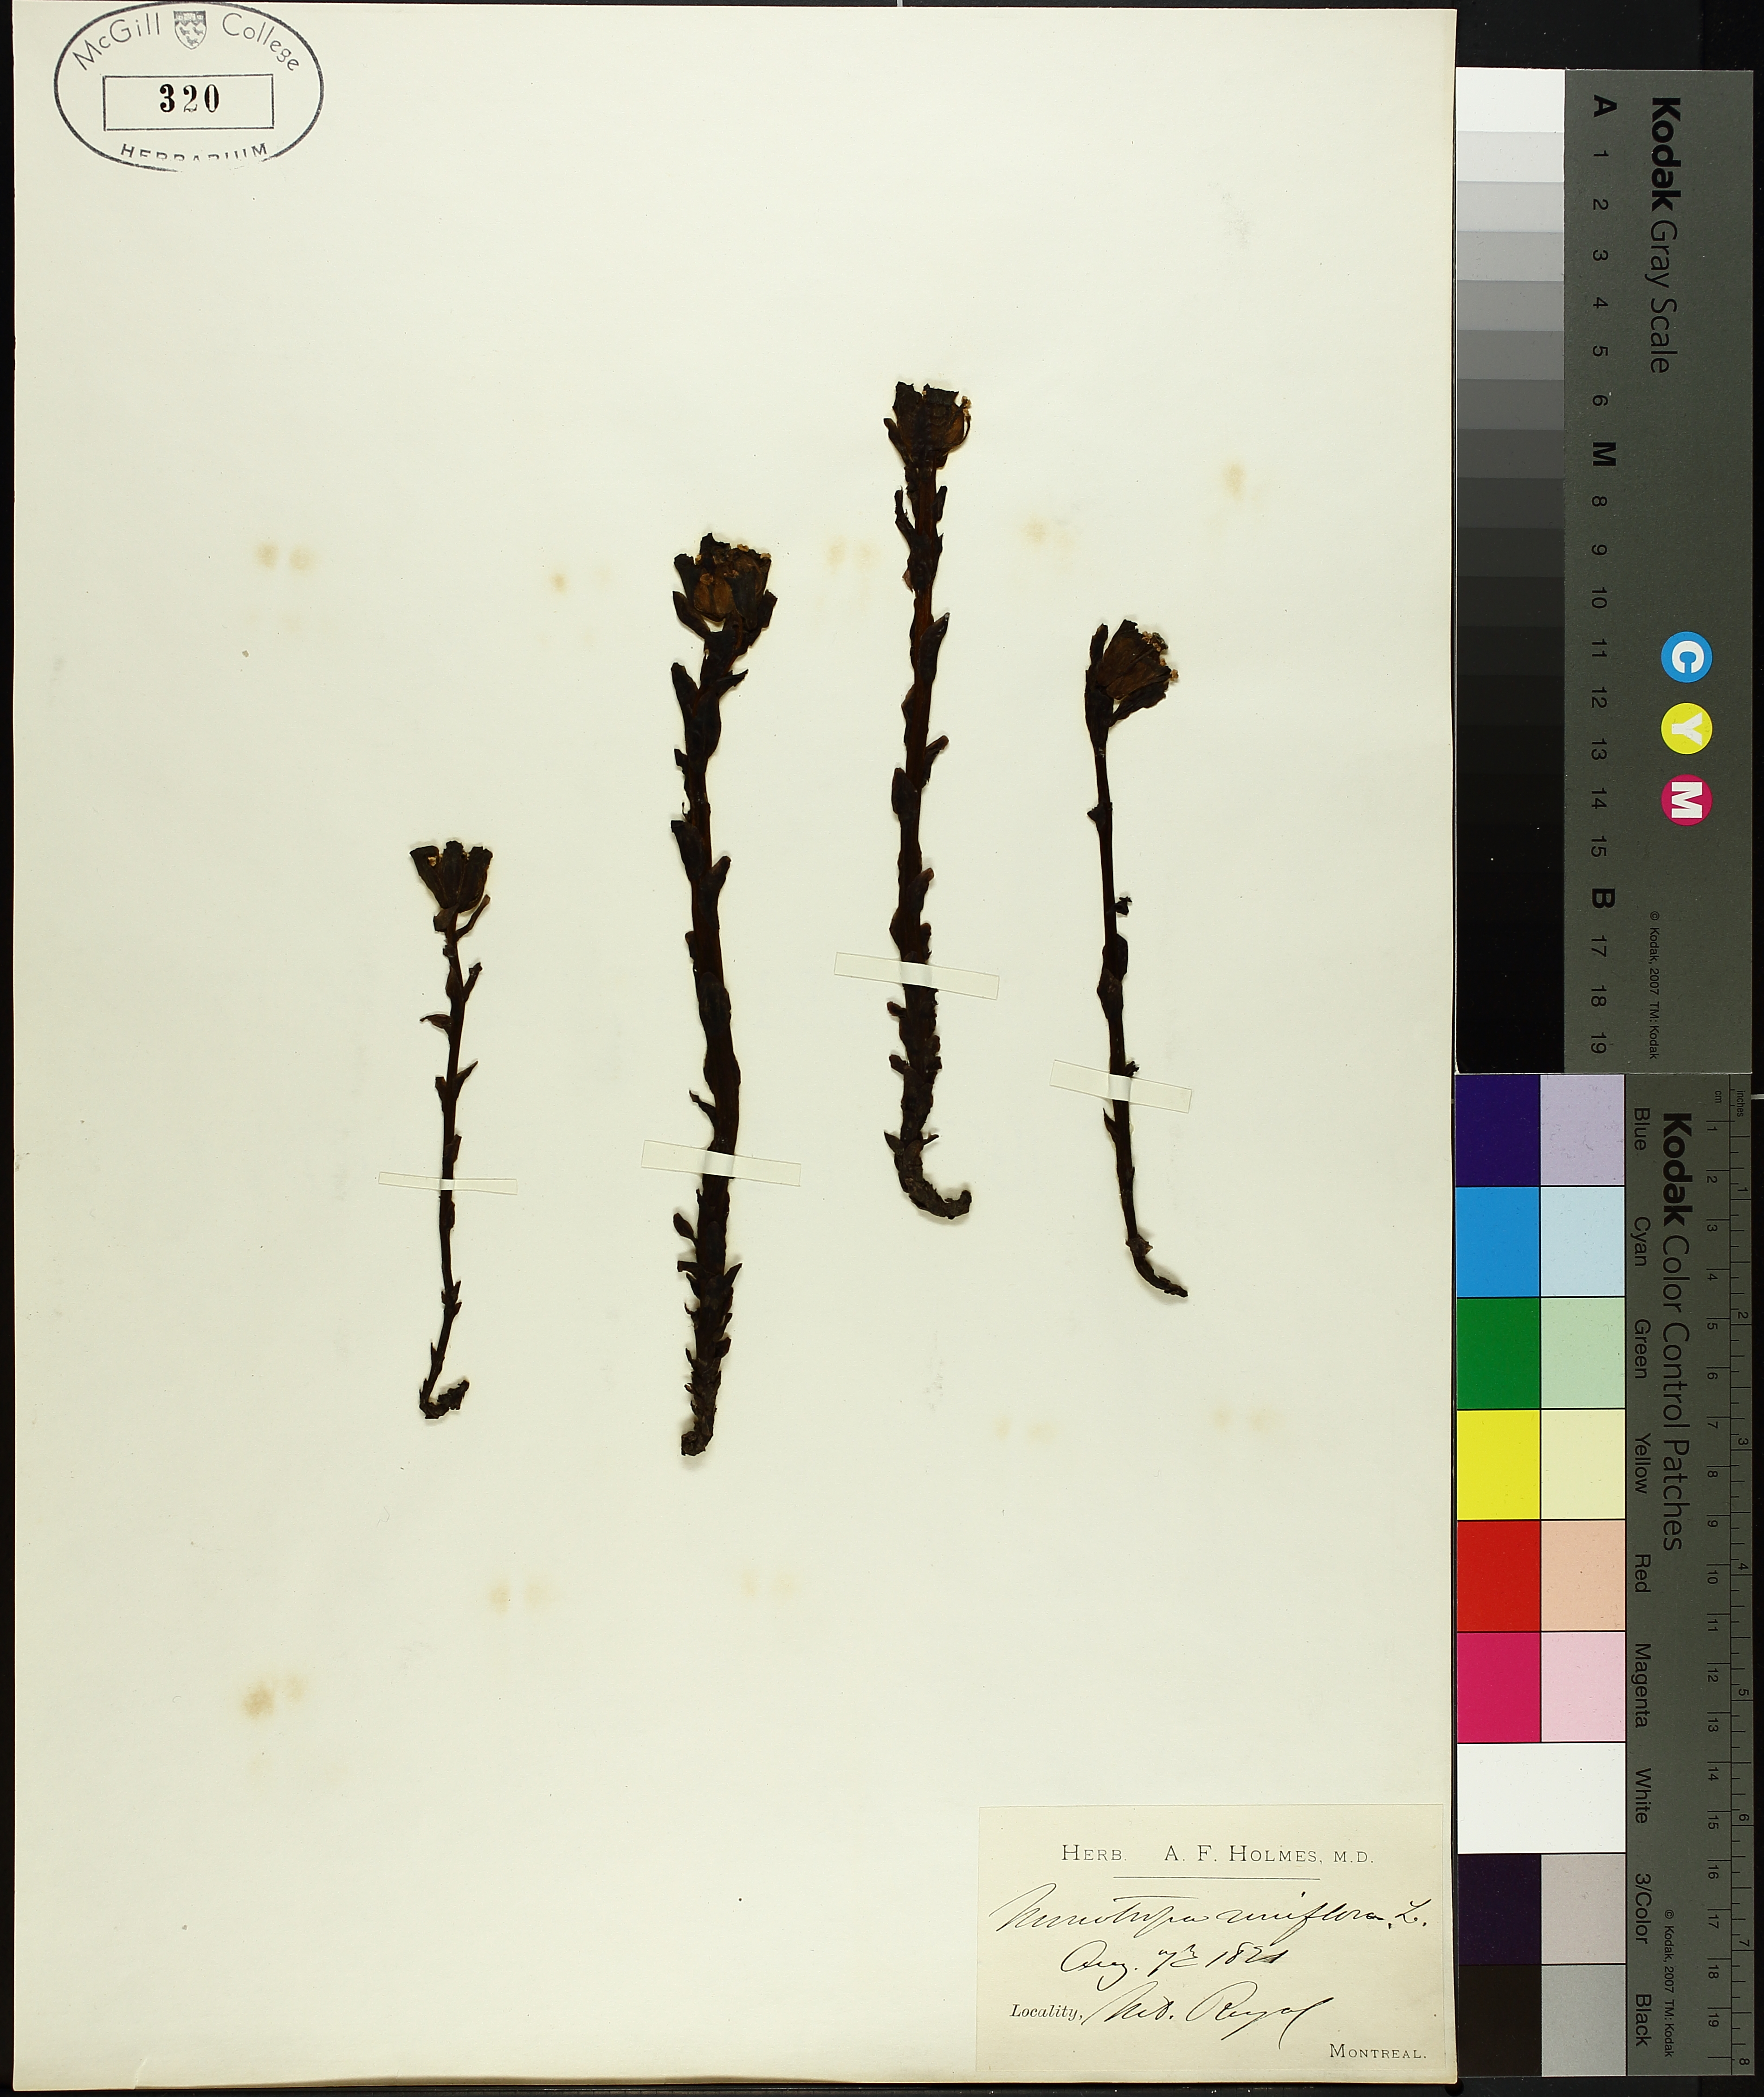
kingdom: Plantae
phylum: Tracheophyta
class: Liliopsida
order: Poales
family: Cyperaceae
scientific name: Cyperaceae
